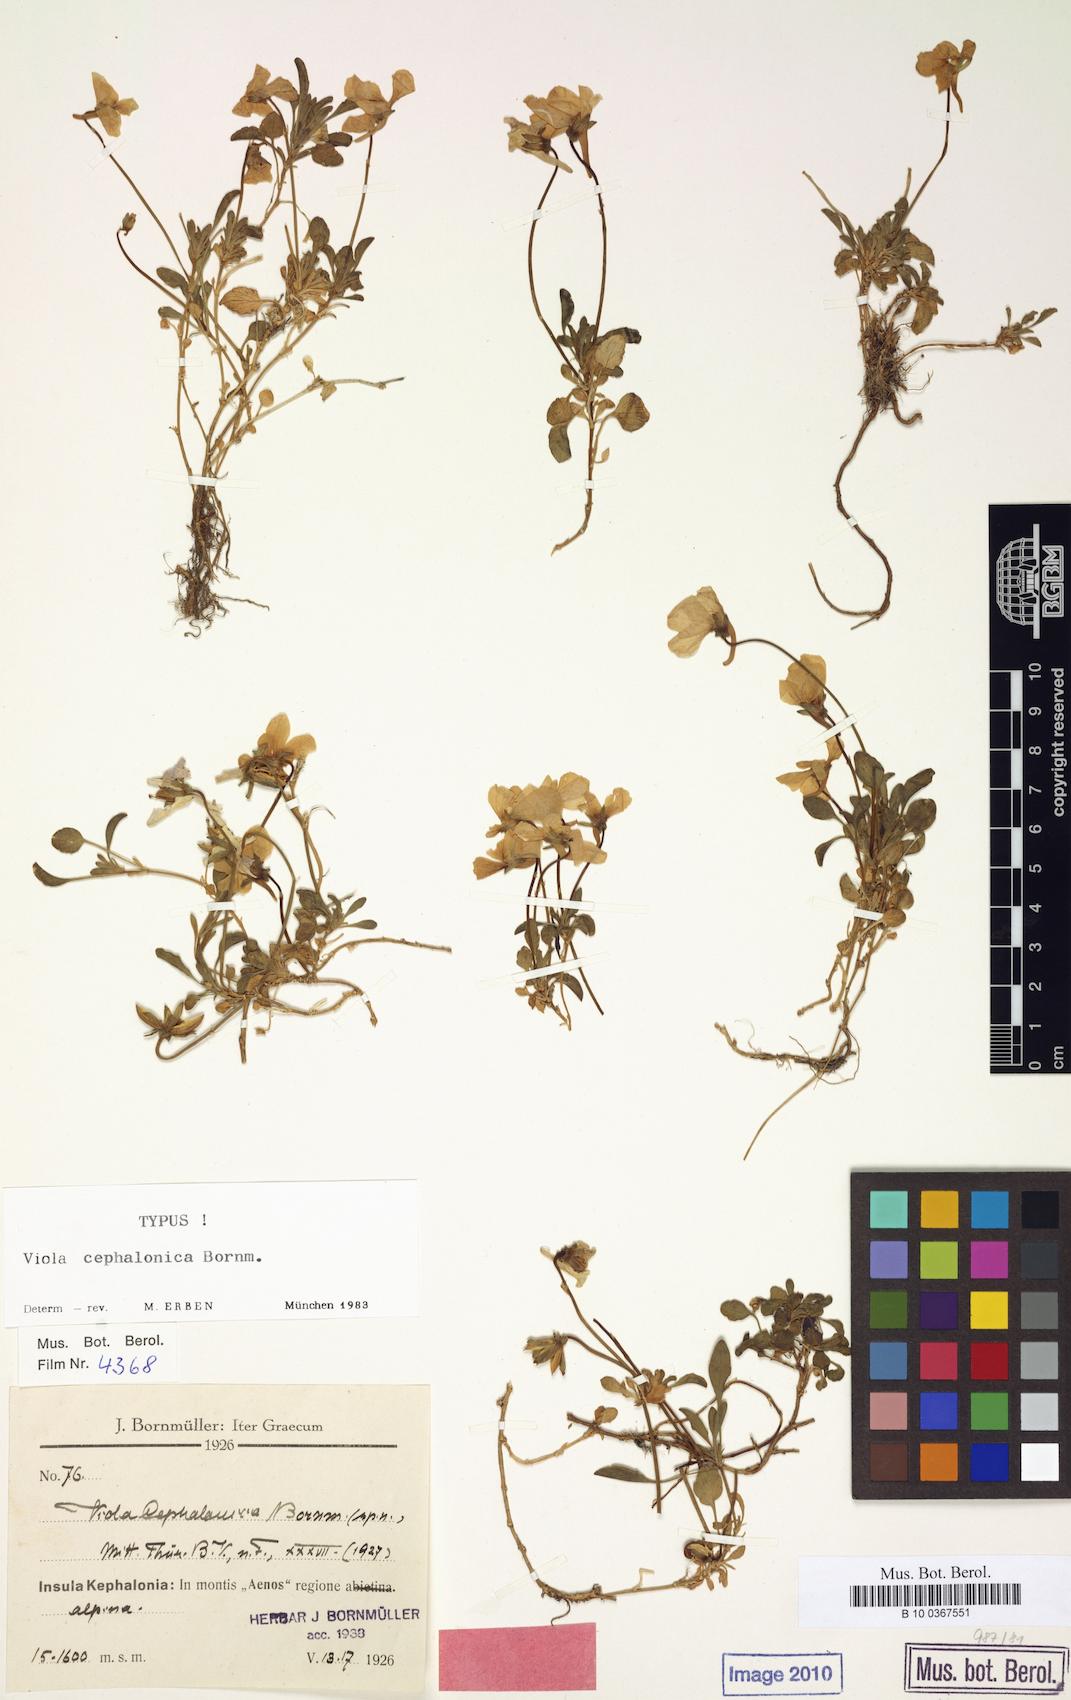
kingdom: Plantae
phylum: Tracheophyta
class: Magnoliopsida
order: Malpighiales
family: Violaceae
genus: Viola
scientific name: Viola cephalonica
